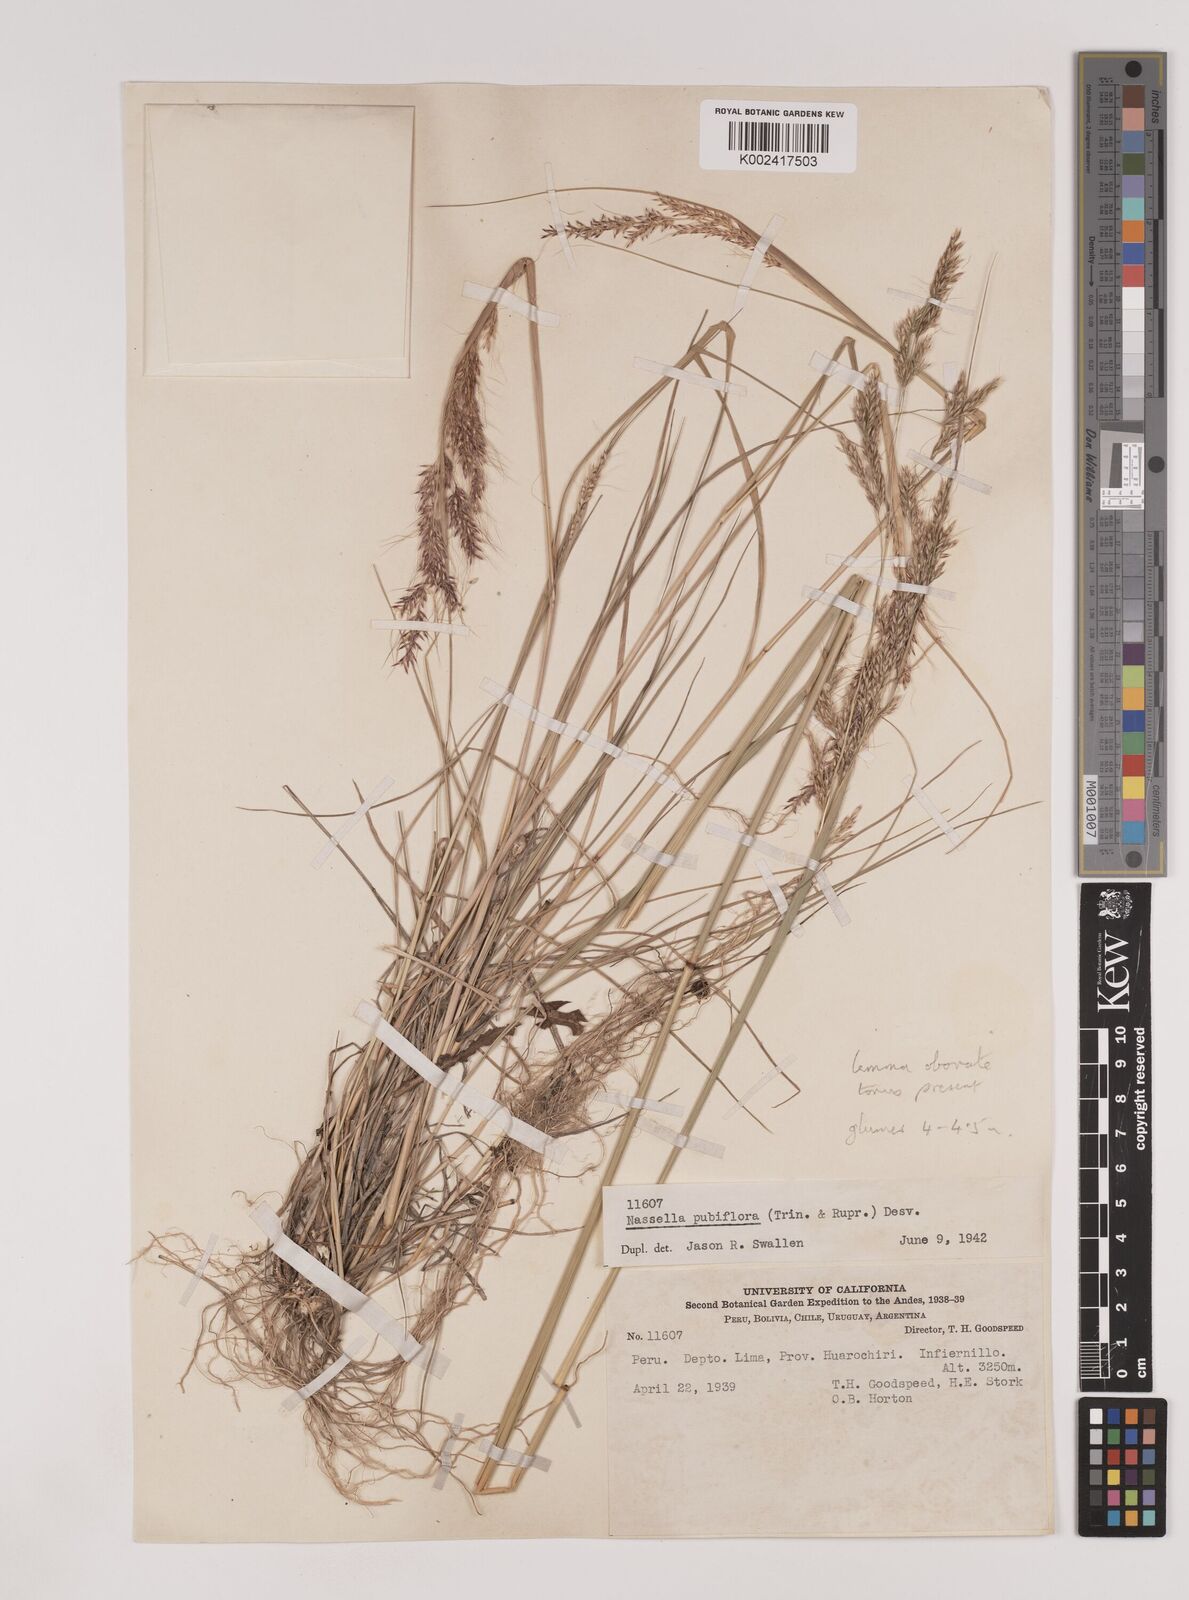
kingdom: Plantae
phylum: Tracheophyta
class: Liliopsida
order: Poales
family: Poaceae
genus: Nassella
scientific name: Nassella pubiflora
